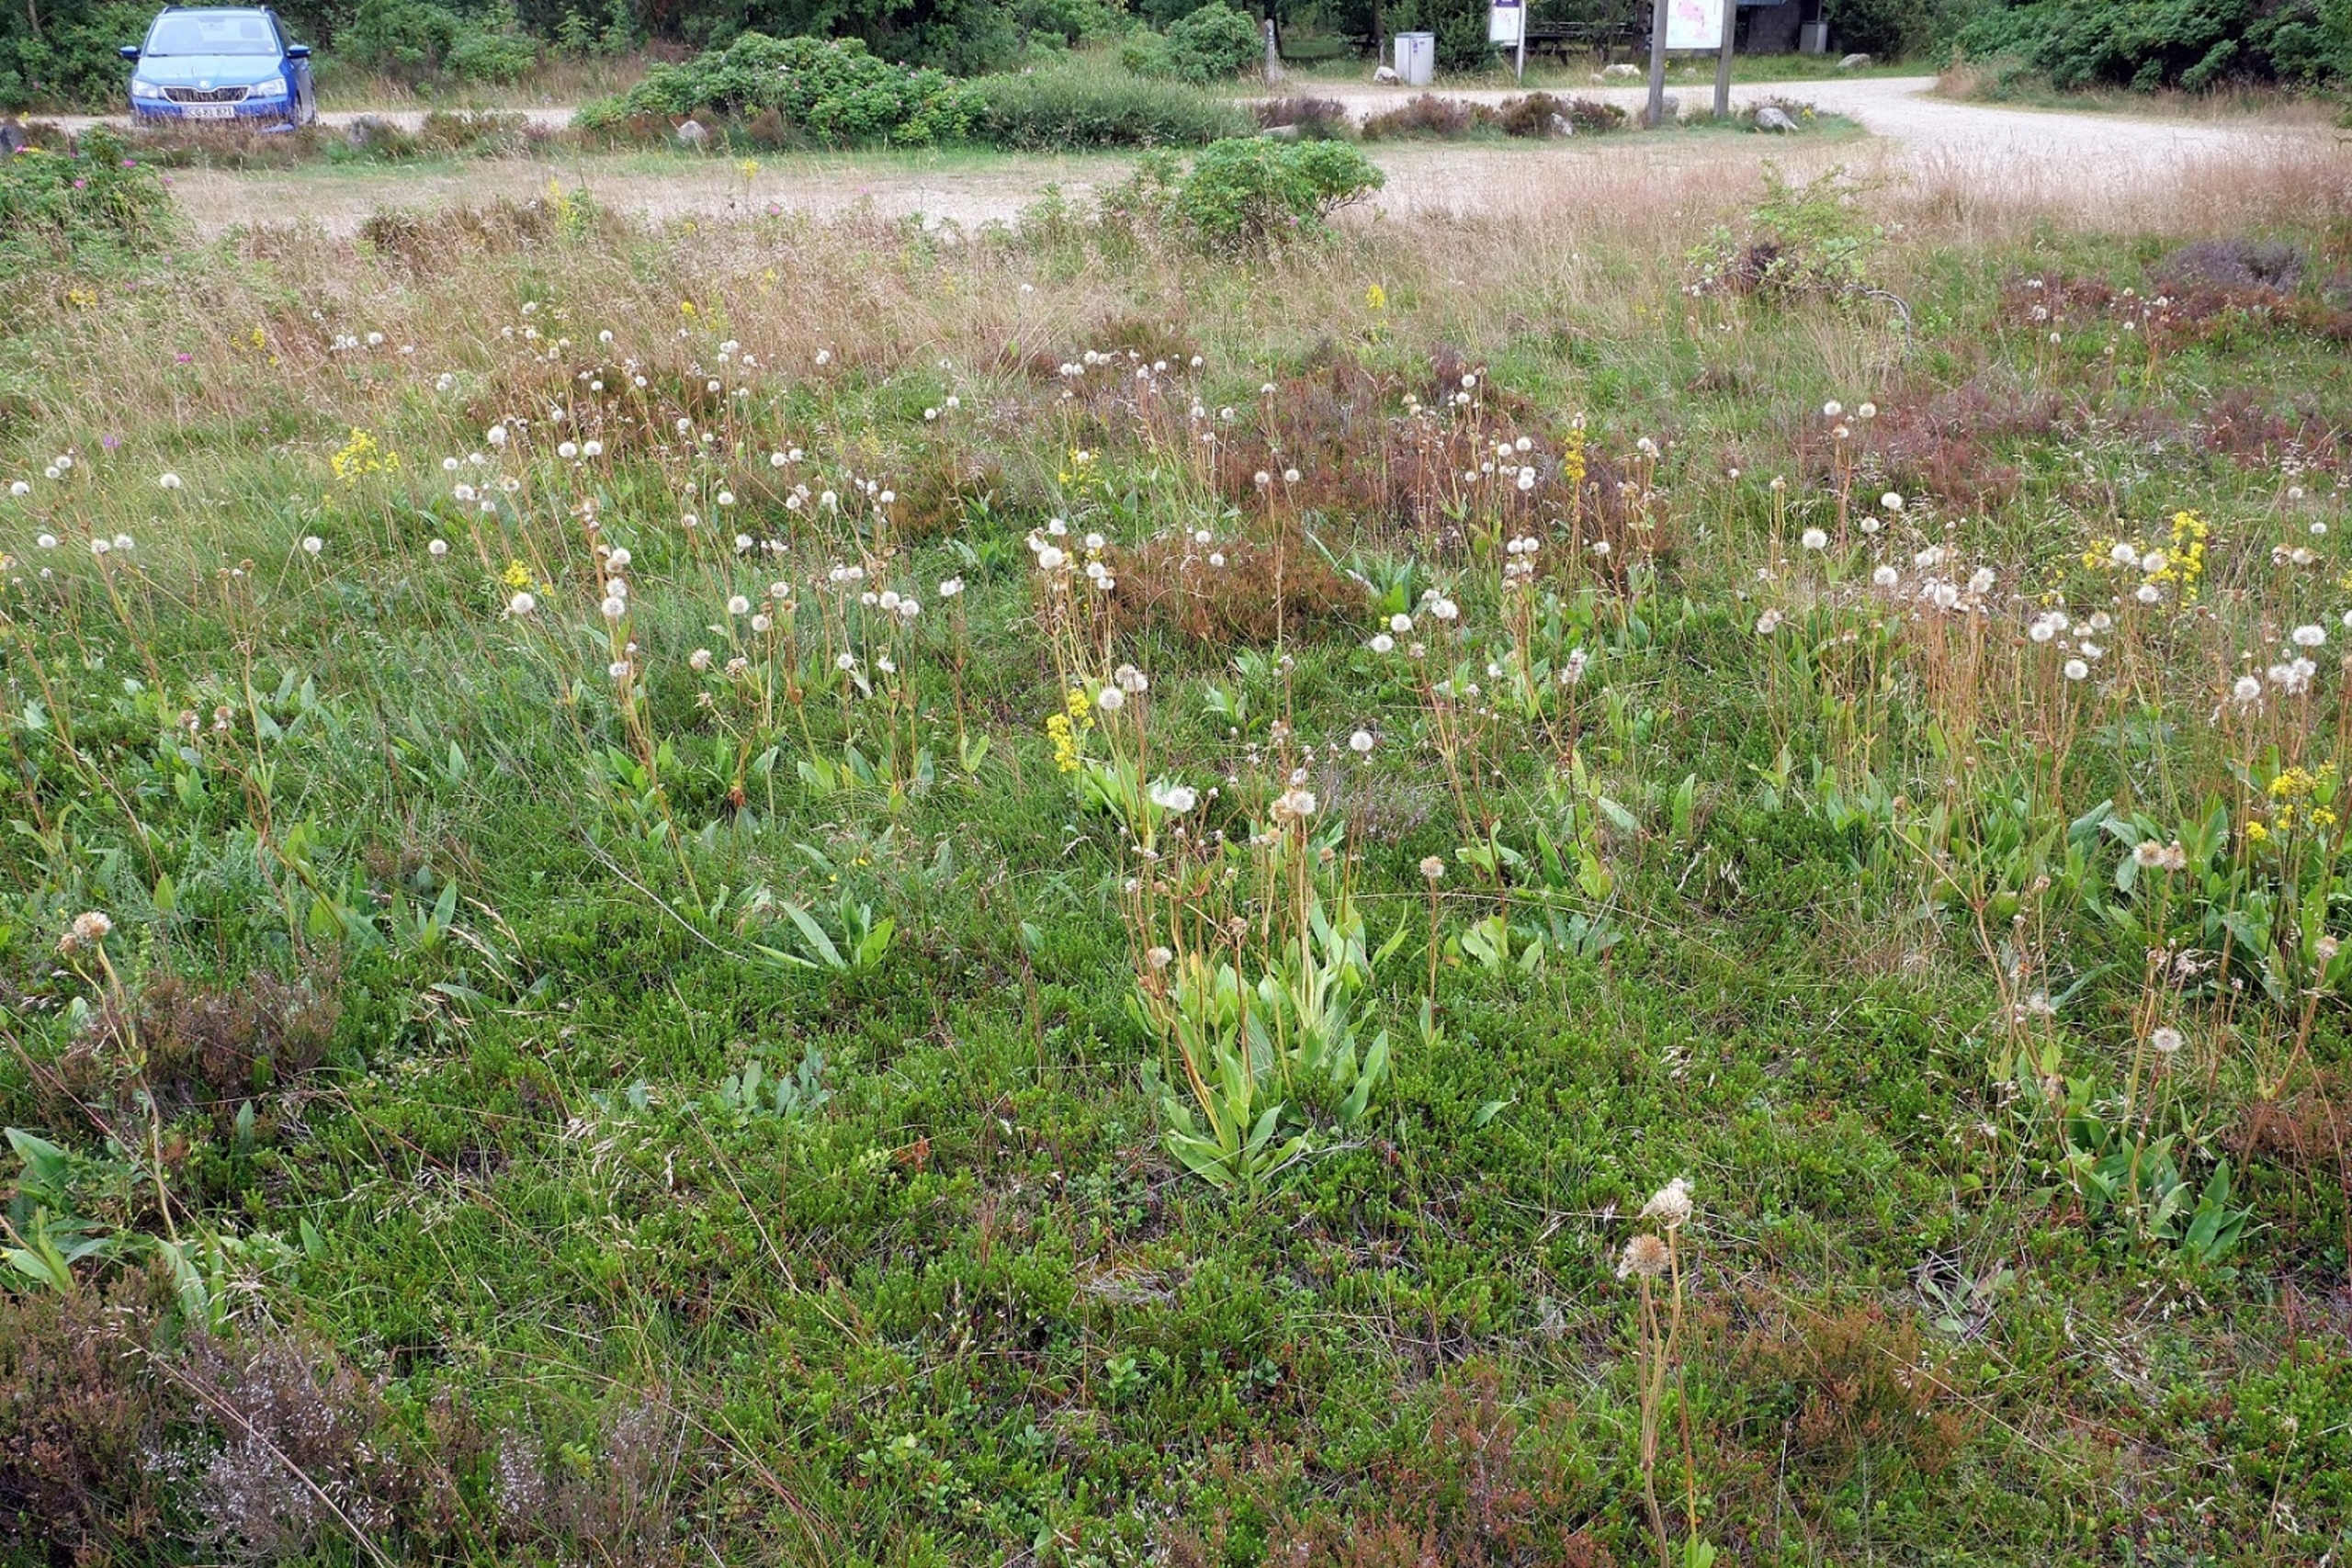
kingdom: Plantae
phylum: Tracheophyta
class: Magnoliopsida
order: Asterales
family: Asteraceae
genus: Arnica
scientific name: Arnica montana
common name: Guldblomme
